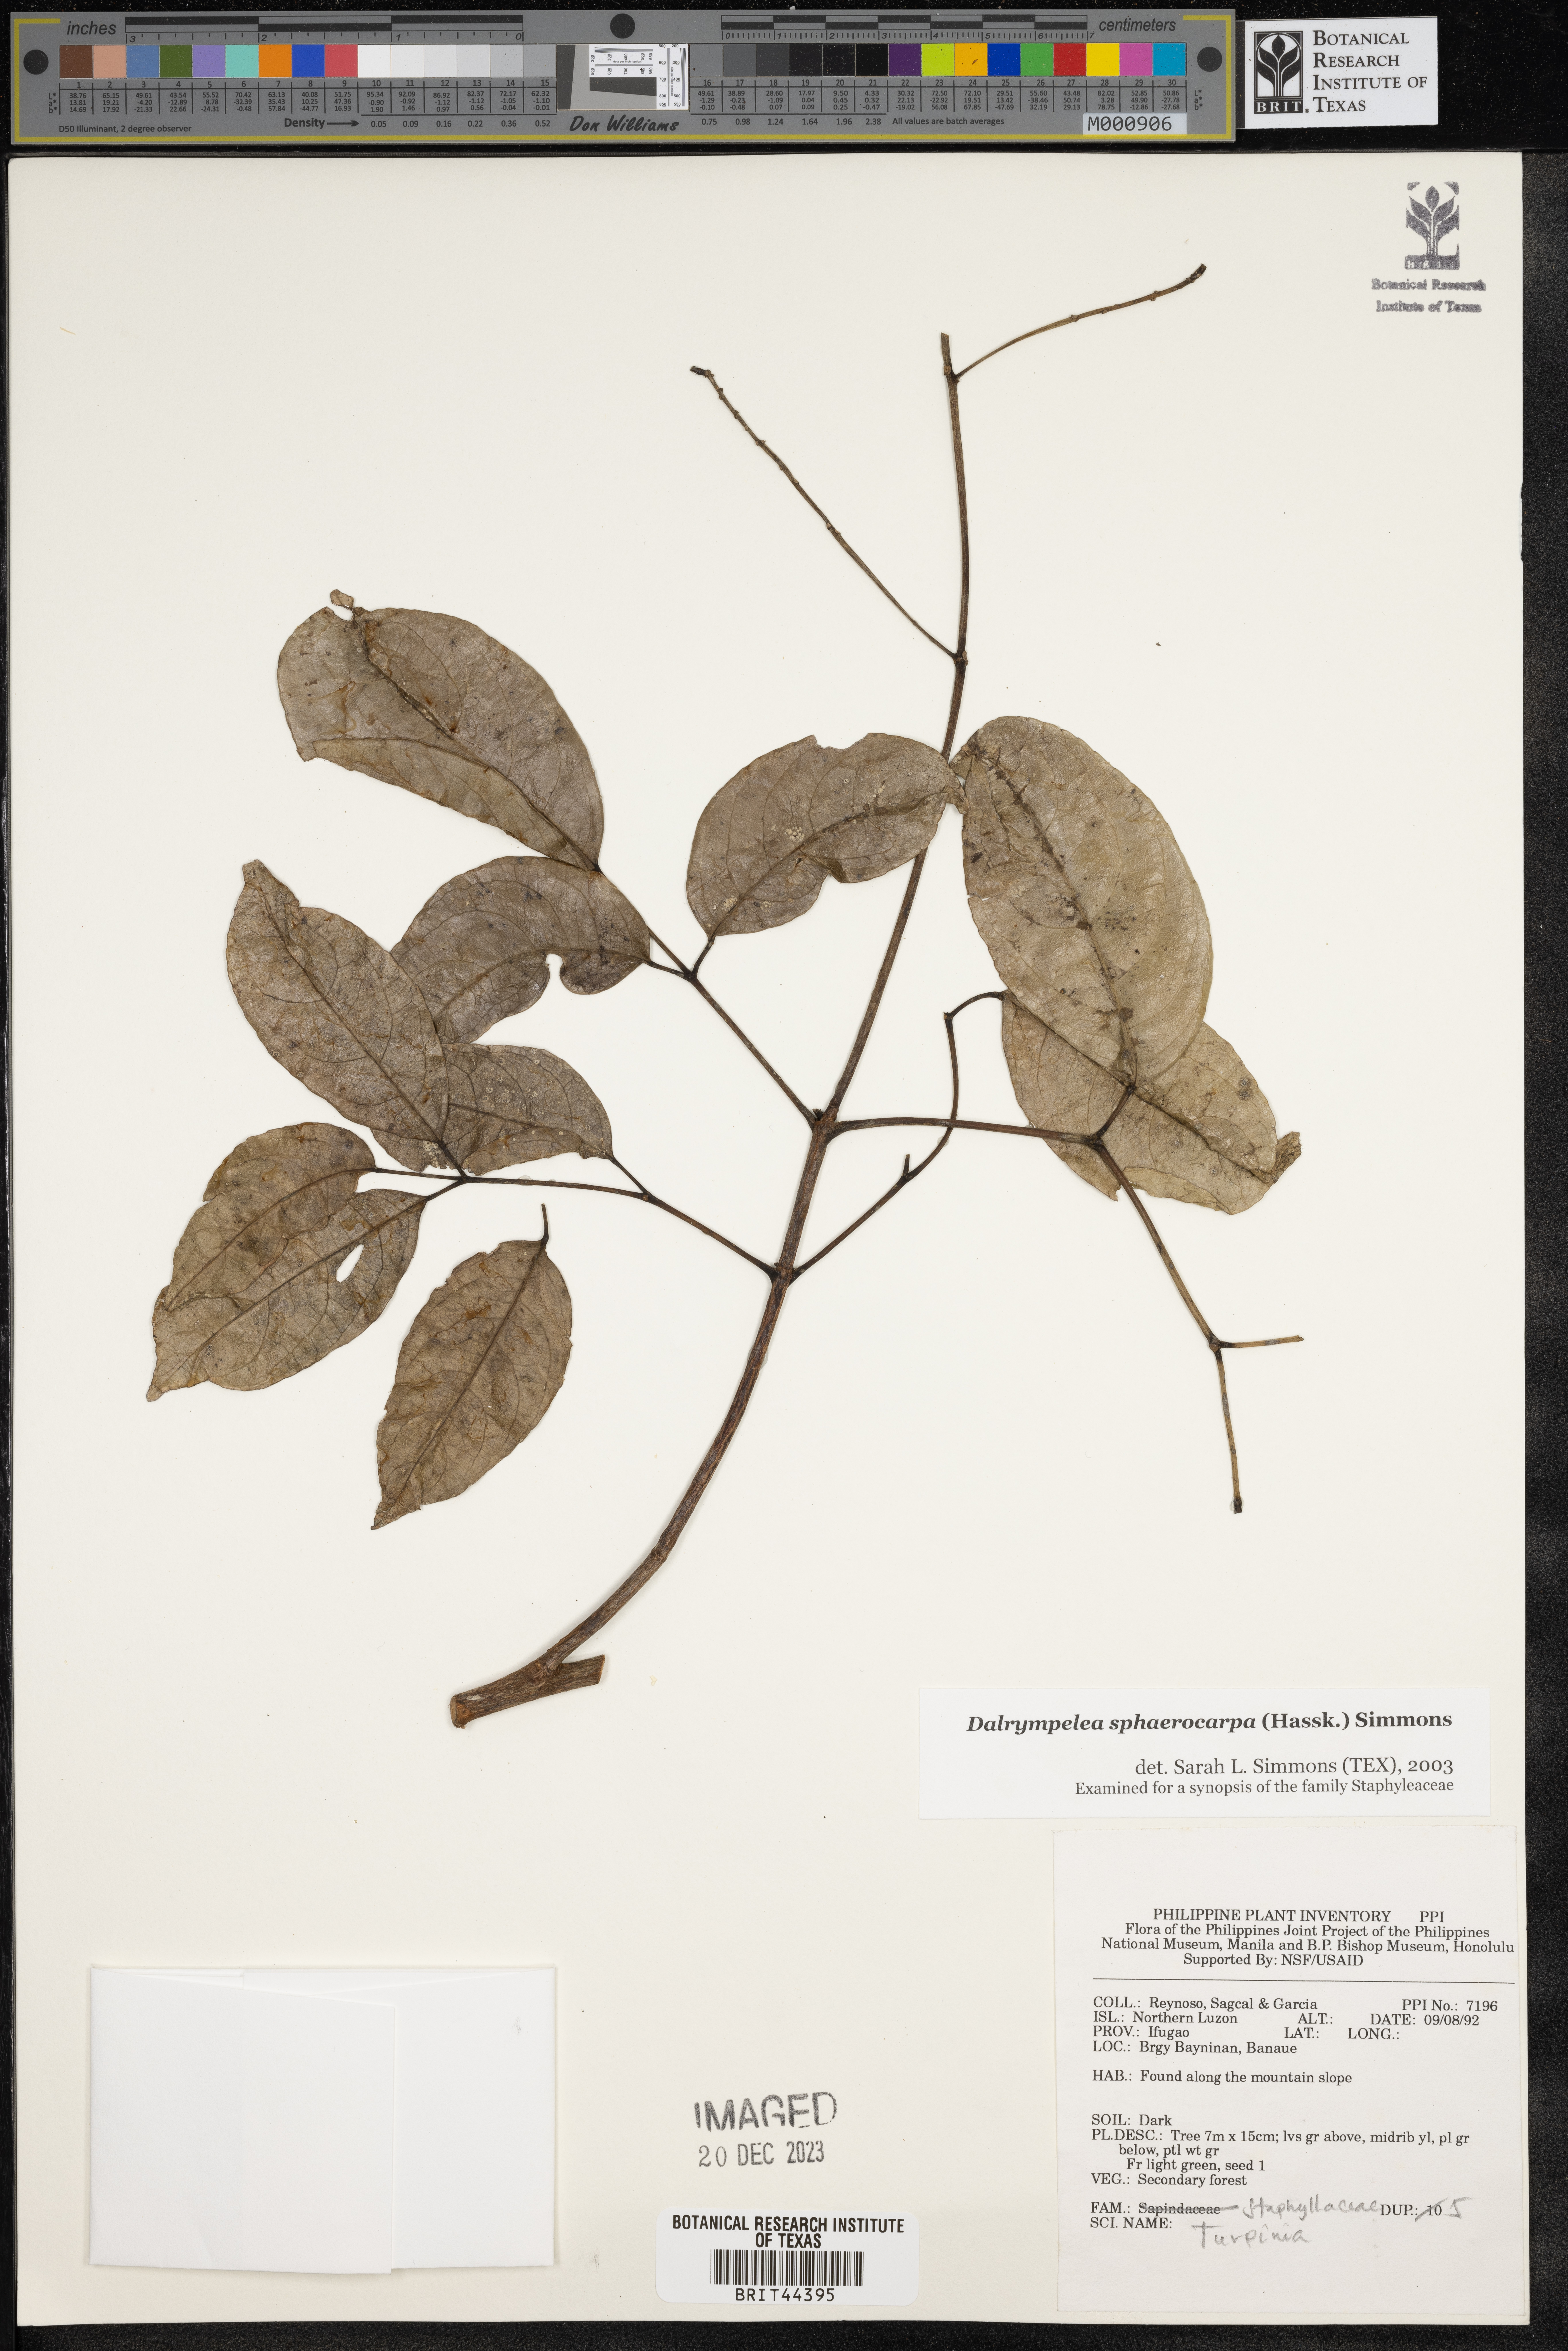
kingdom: Plantae
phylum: Tracheophyta
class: Magnoliopsida
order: Crossosomatales
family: Staphyleaceae
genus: Dalrympelea
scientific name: Dalrympelea sphaerocarpa
